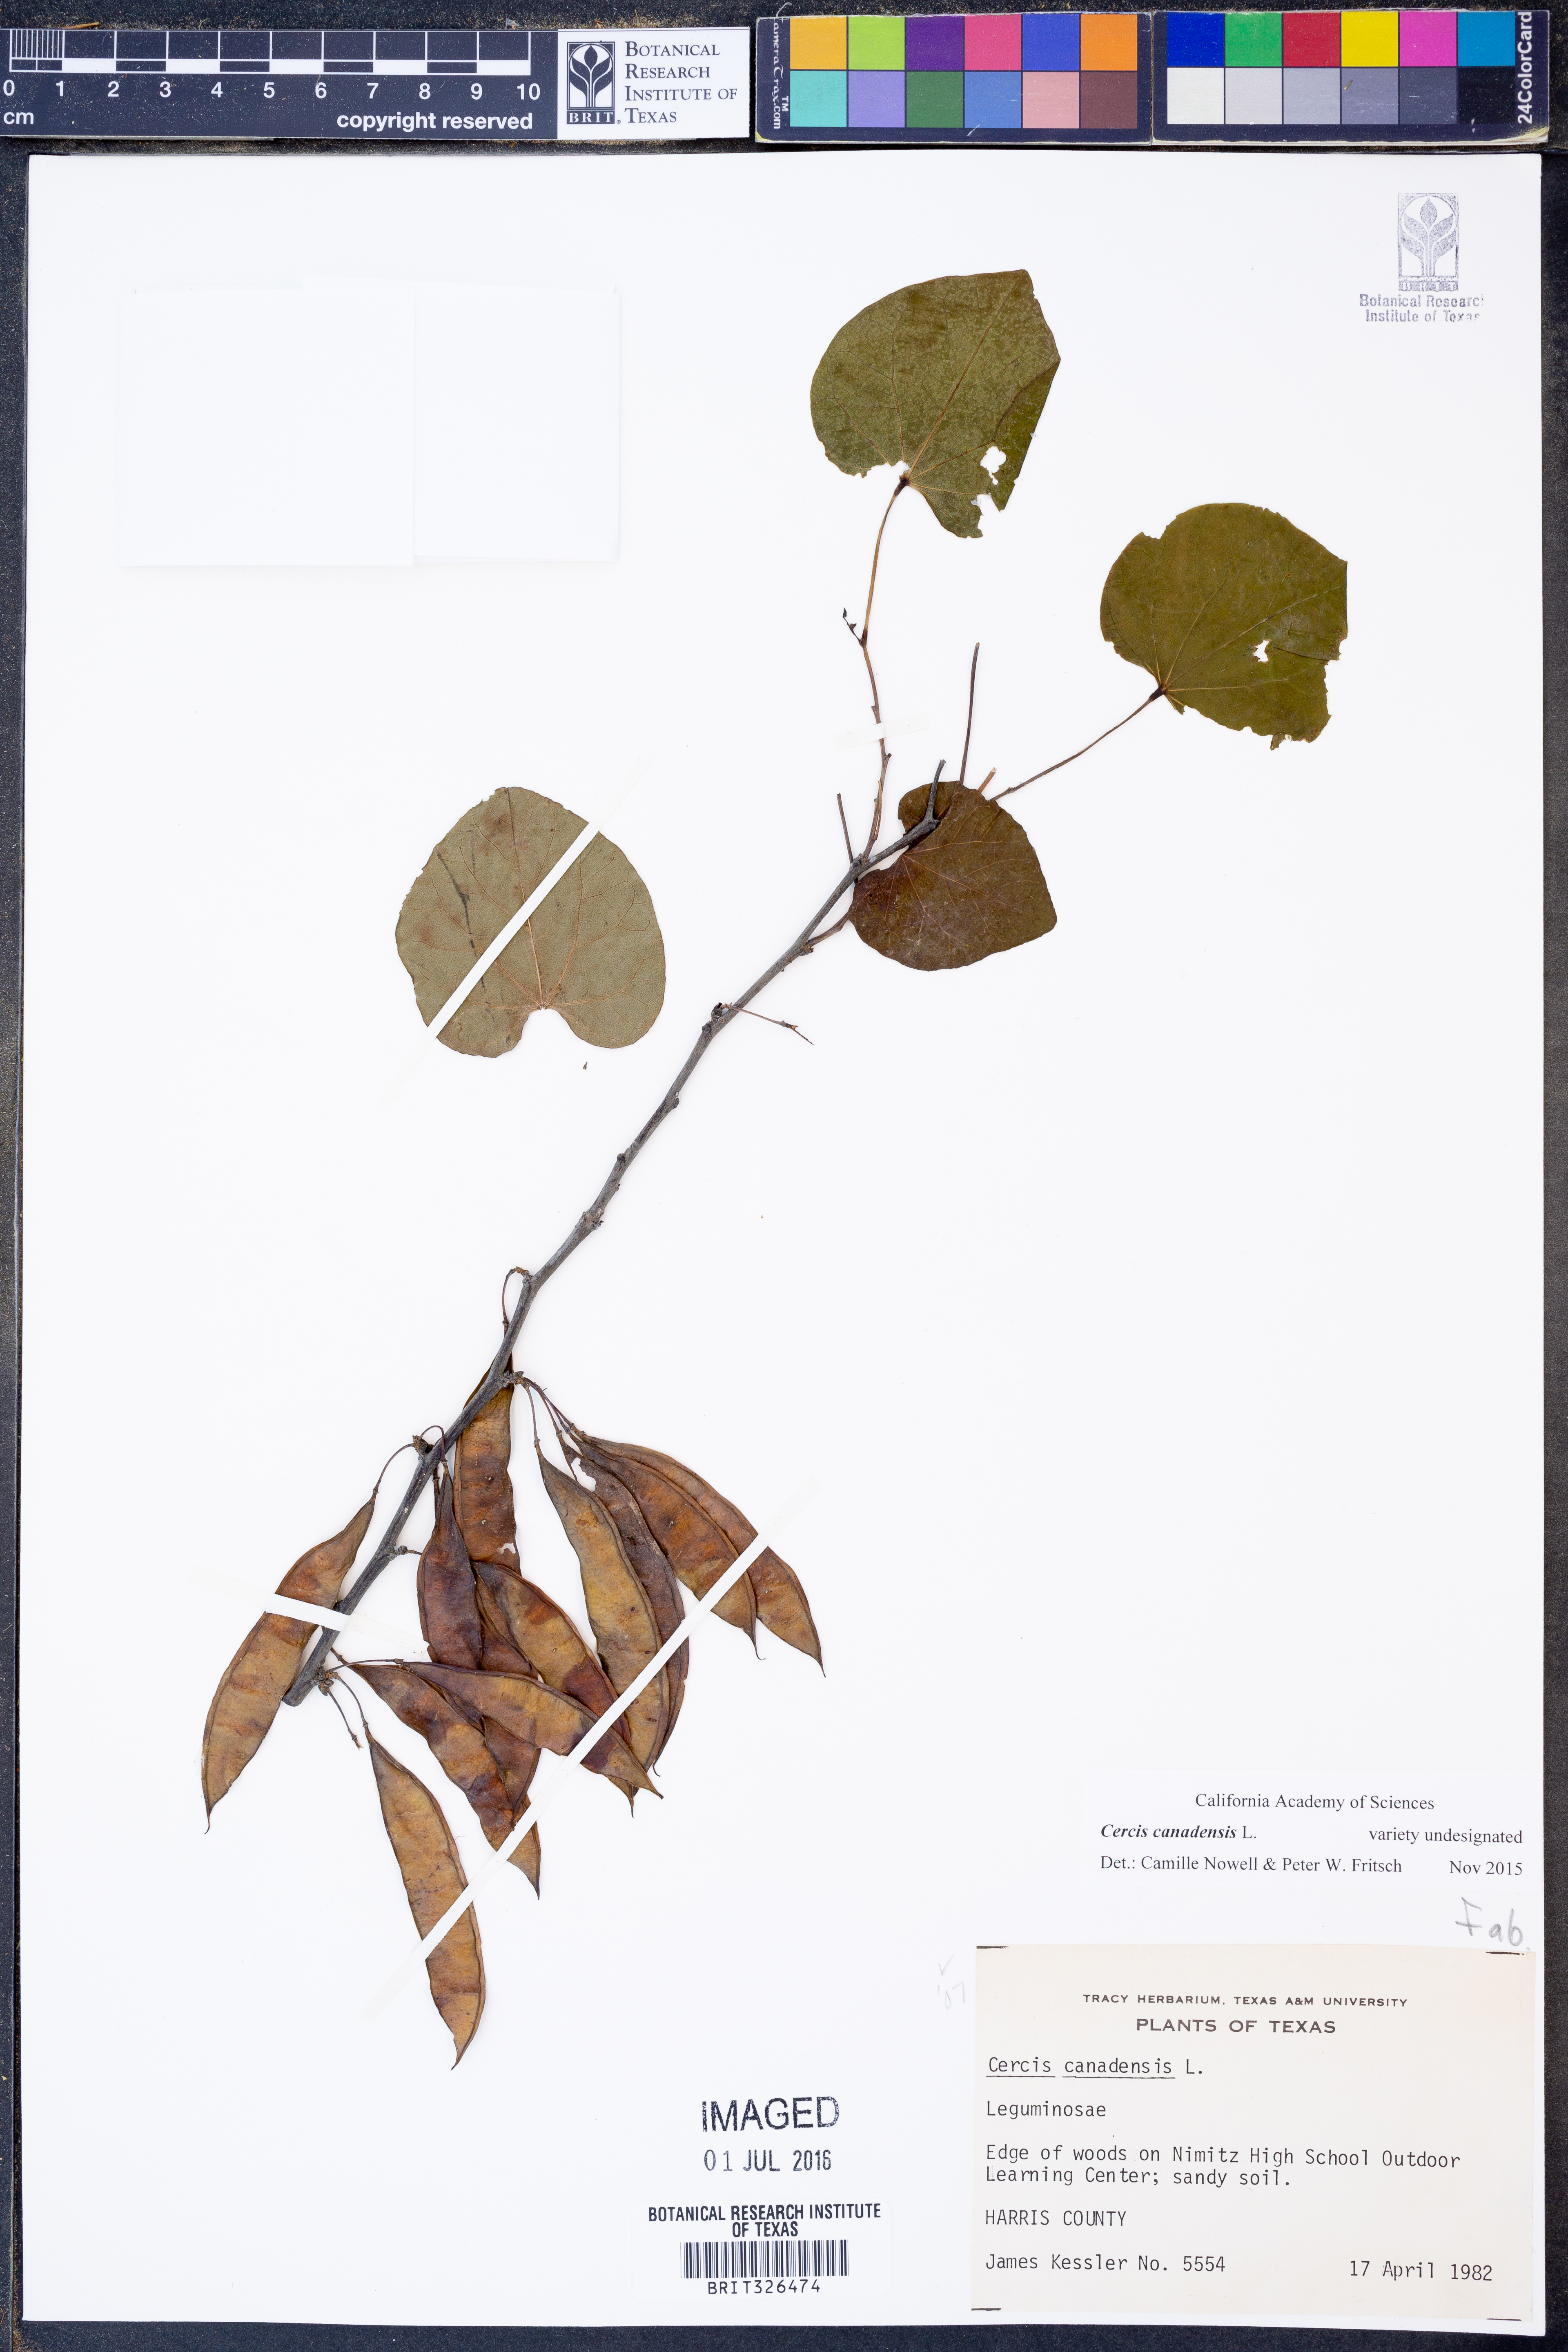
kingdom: Plantae
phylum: Tracheophyta
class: Magnoliopsida
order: Fabales
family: Fabaceae
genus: Cercis
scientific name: Cercis canadensis
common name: Eastern redbud
